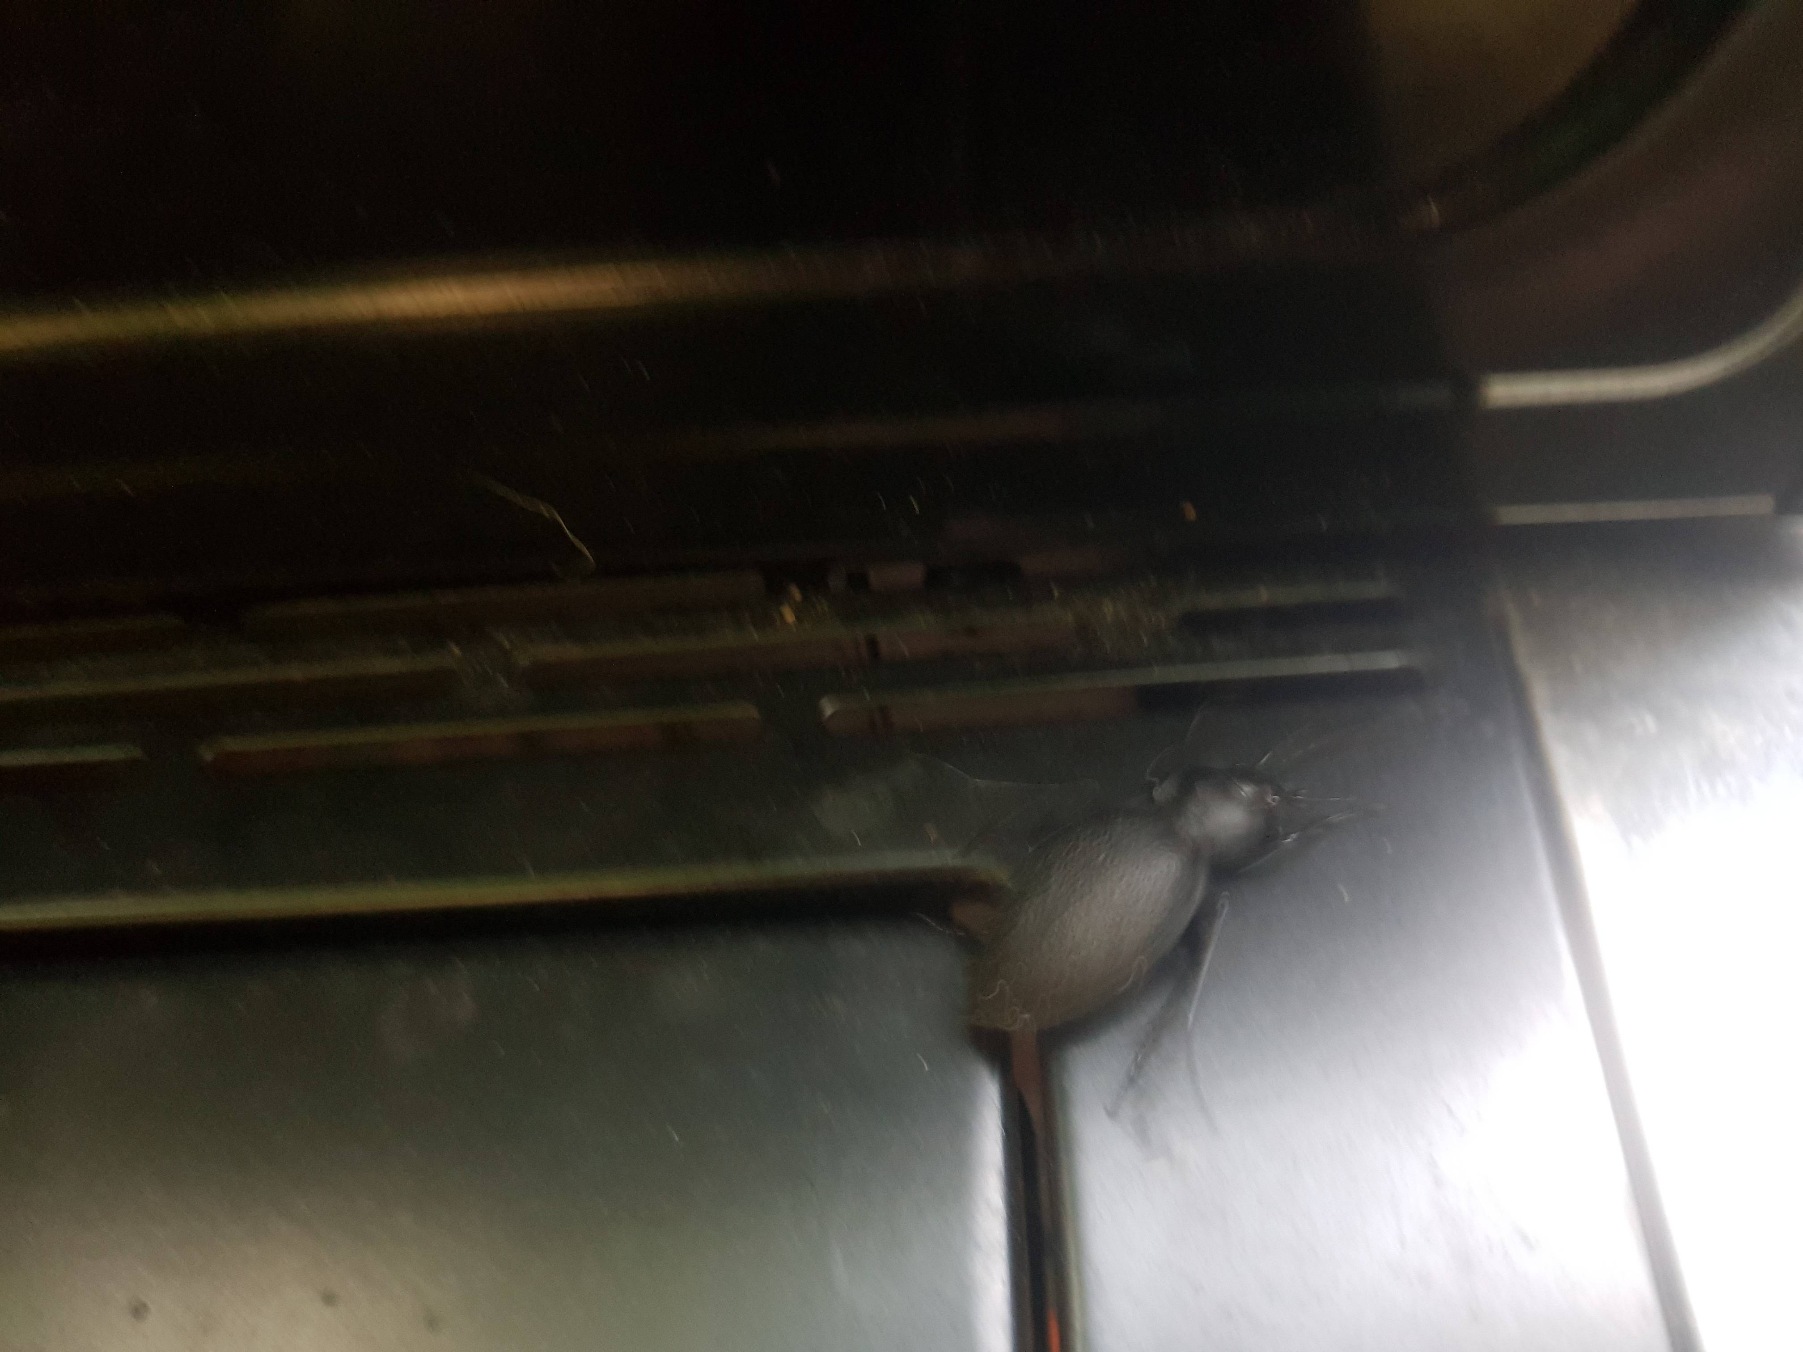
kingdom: Animalia
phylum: Arthropoda
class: Insecta
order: Coleoptera
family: Carabidae
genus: Carabus
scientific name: Carabus coriaceus
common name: Læderløber
